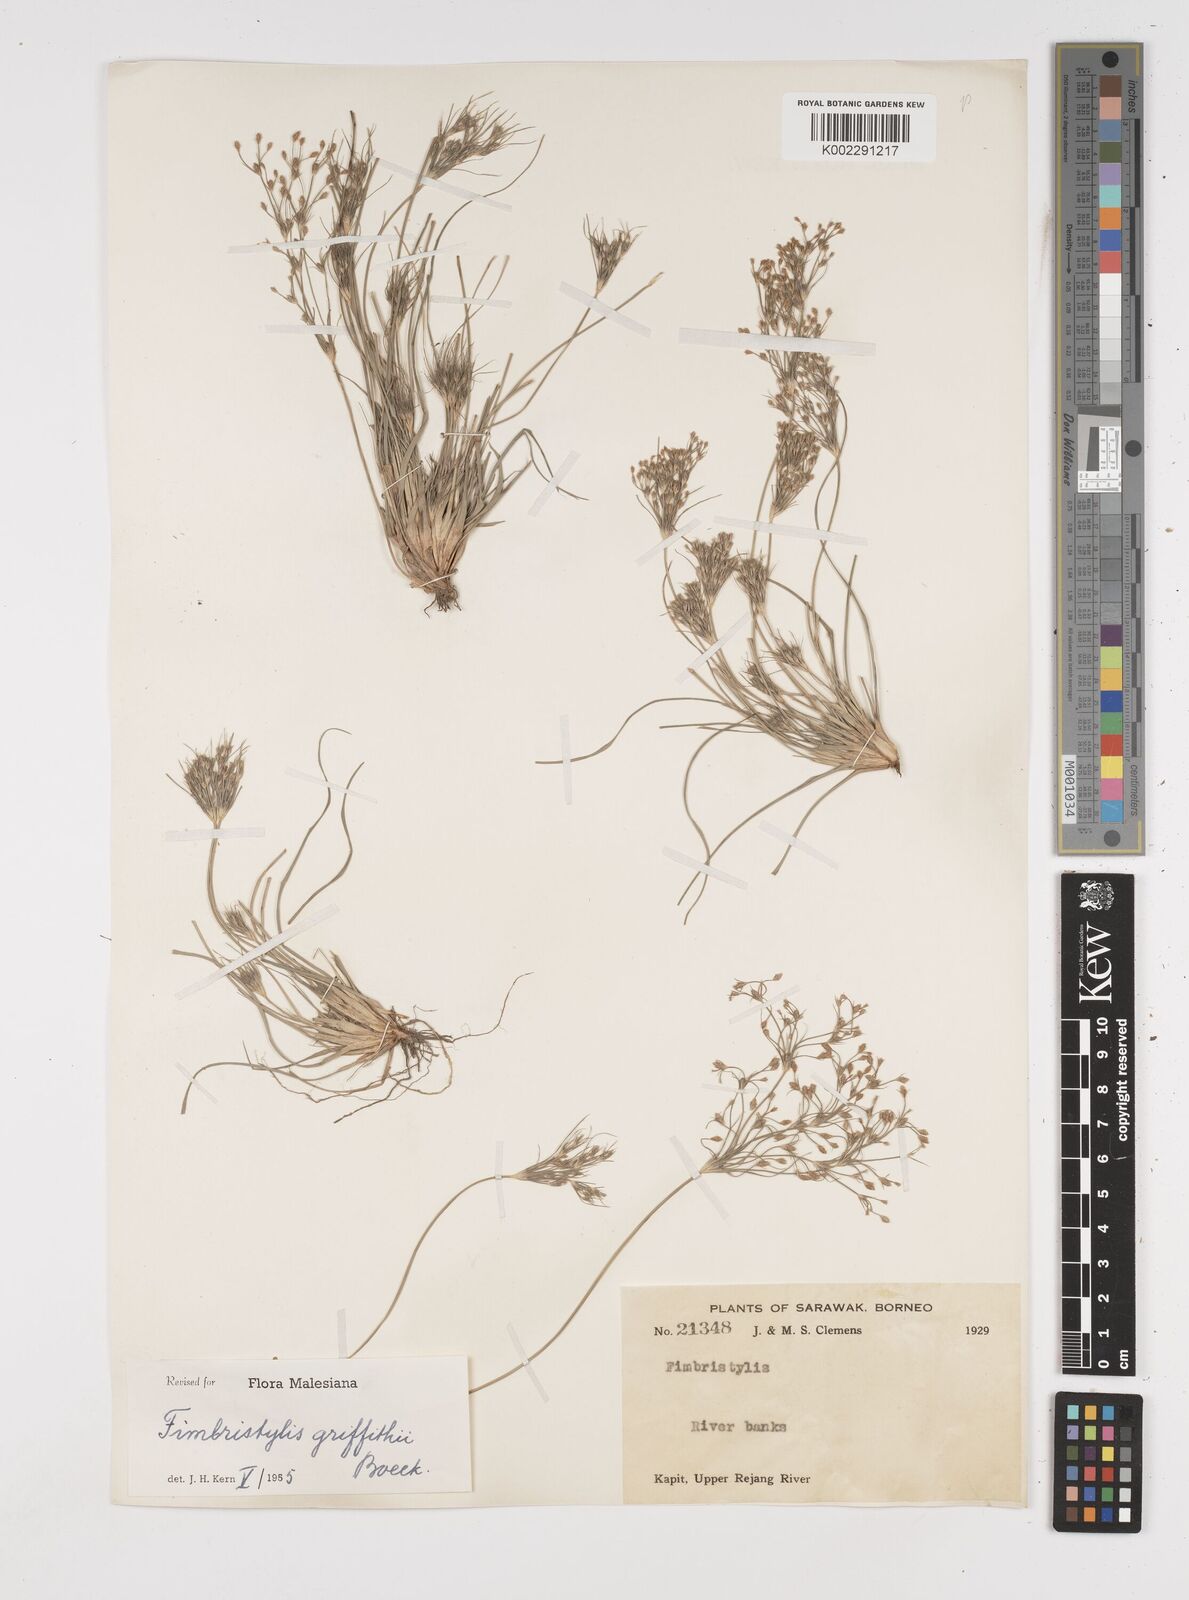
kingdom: Plantae
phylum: Tracheophyta
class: Liliopsida
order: Poales
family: Cyperaceae
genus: Fimbristylis
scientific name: Fimbristylis griffithii
